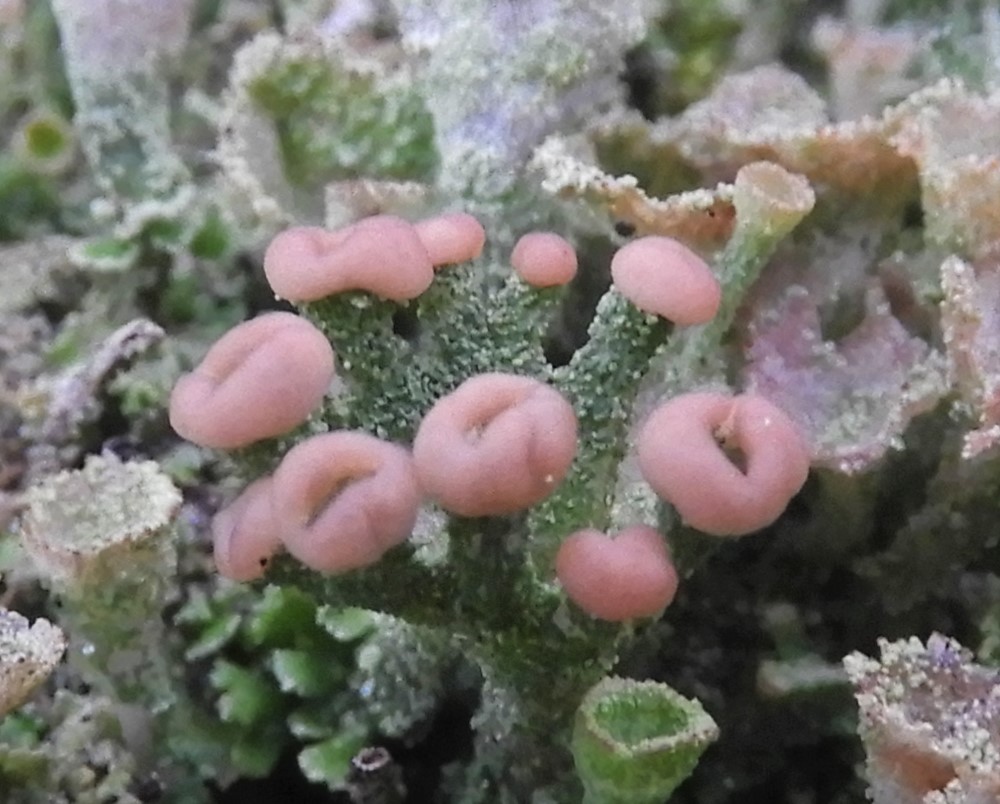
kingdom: Fungi
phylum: Ascomycota
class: Lecanoromycetes
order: Lecanorales
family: Cladoniaceae
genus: Cladonia
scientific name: Cladonia ramulosa
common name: kliddet bægerlav
